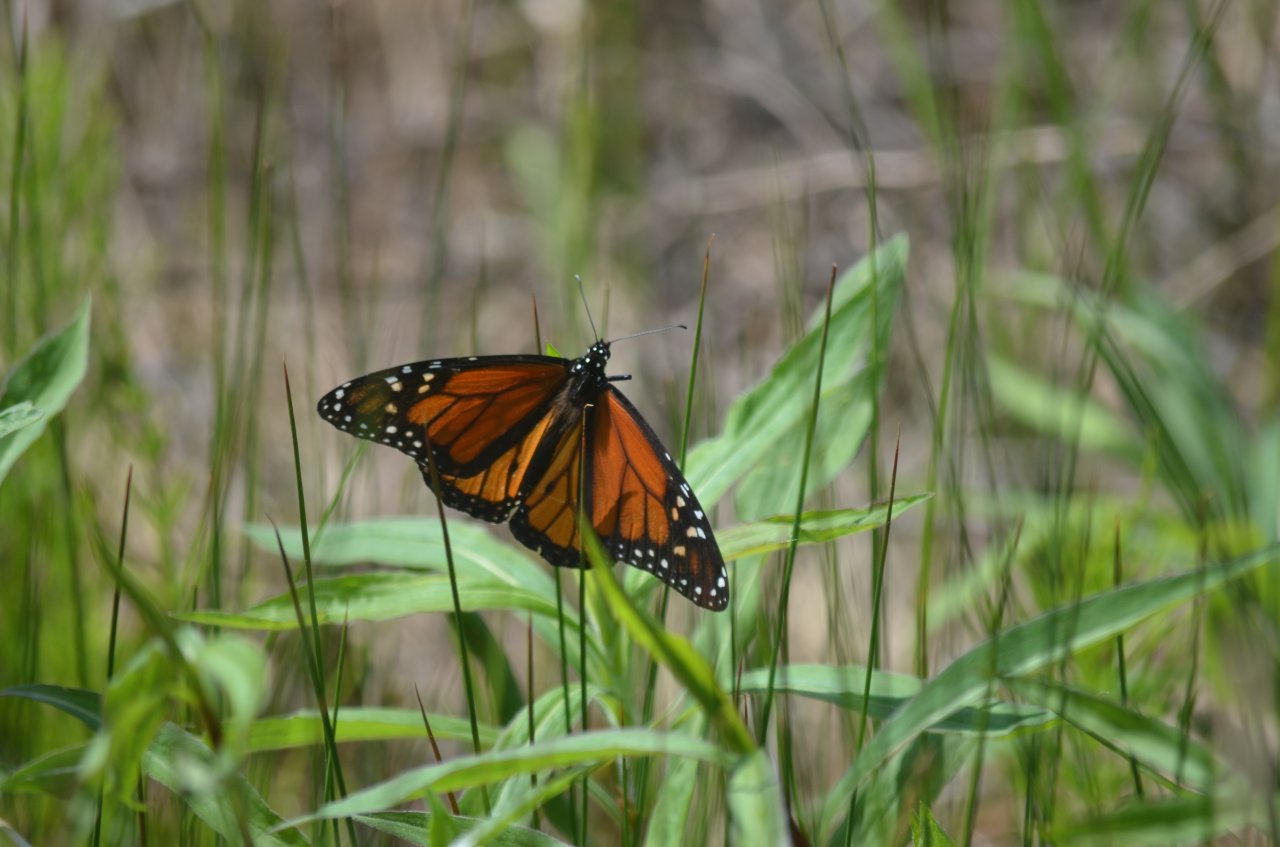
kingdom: Animalia
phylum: Arthropoda
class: Insecta
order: Lepidoptera
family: Nymphalidae
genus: Danaus
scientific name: Danaus plexippus
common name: Monarch
